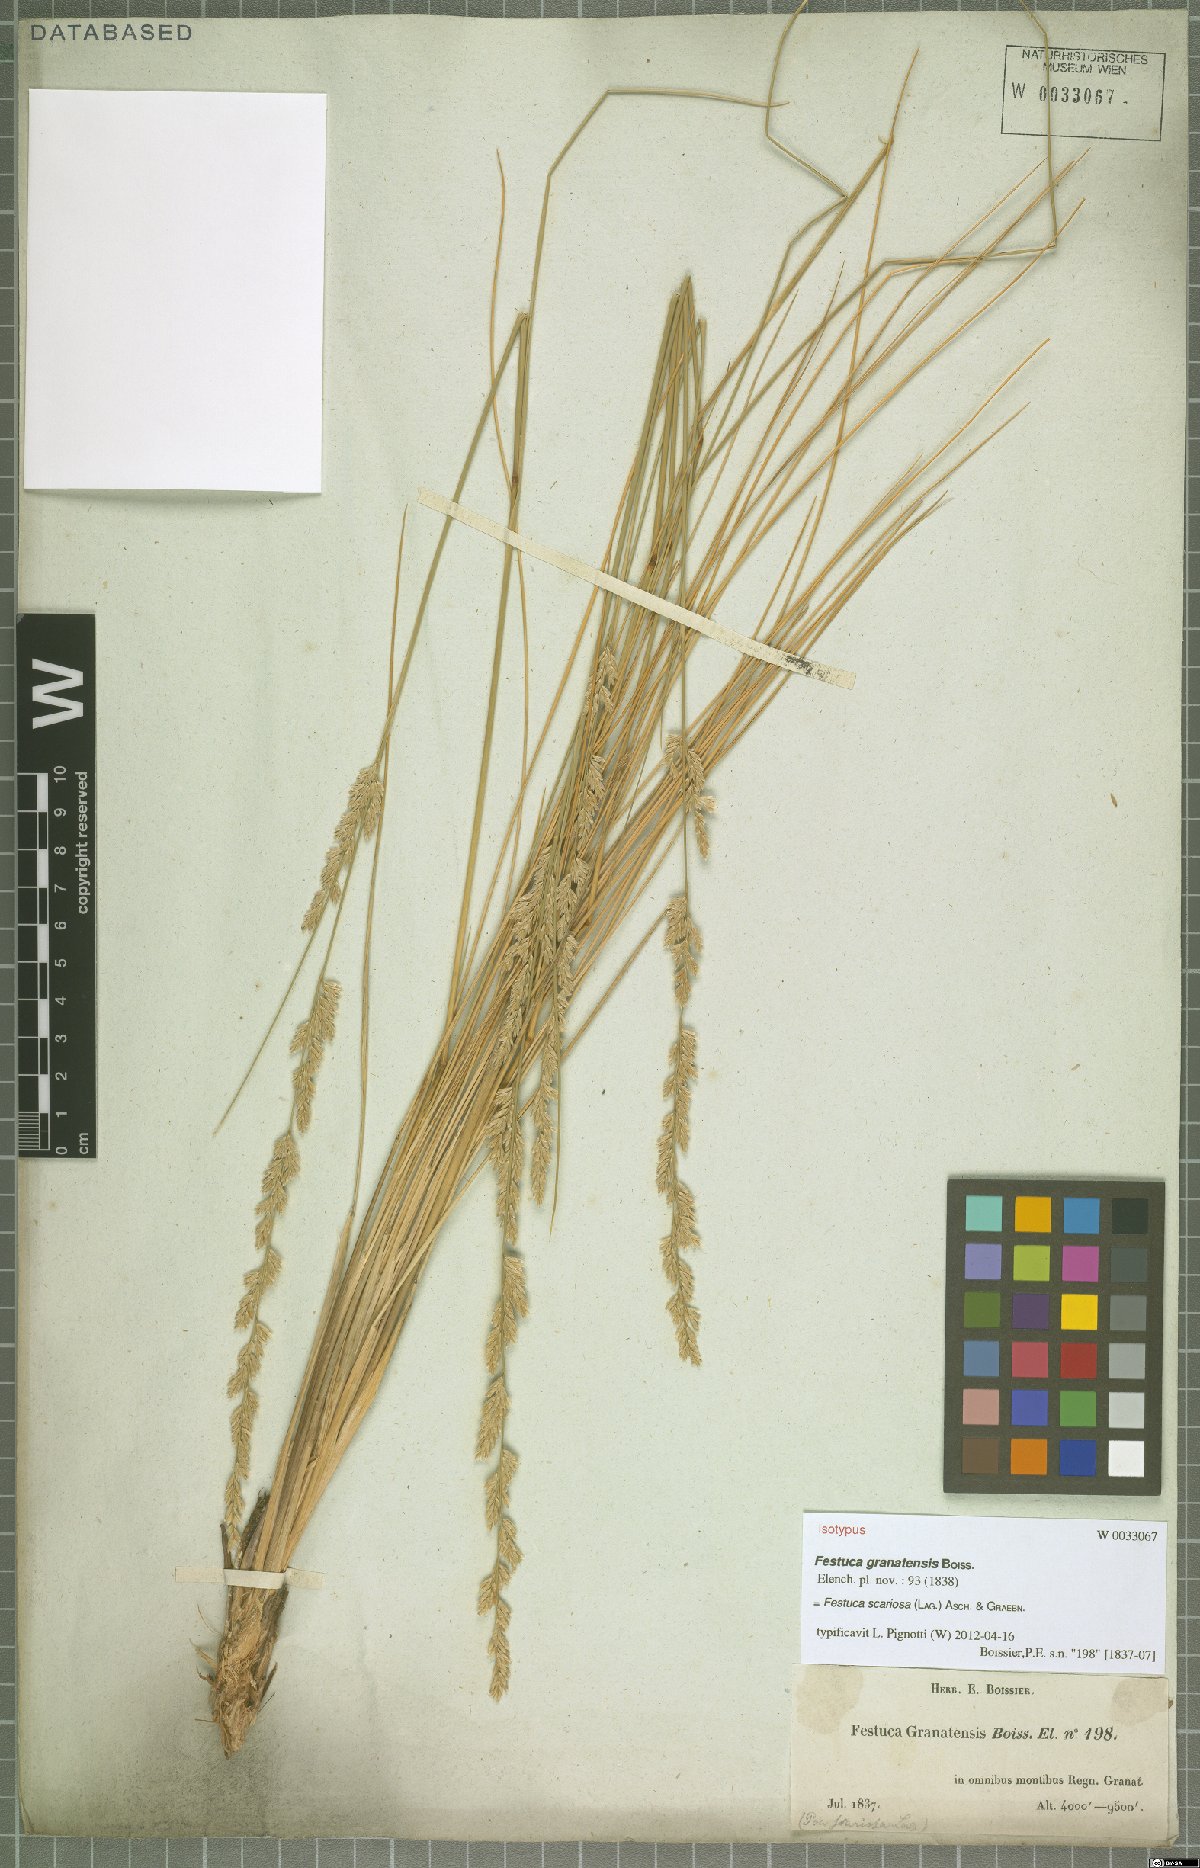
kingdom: Plantae
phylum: Tracheophyta
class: Liliopsida
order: Poales
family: Poaceae
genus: Festuca
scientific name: Festuca scariosa
